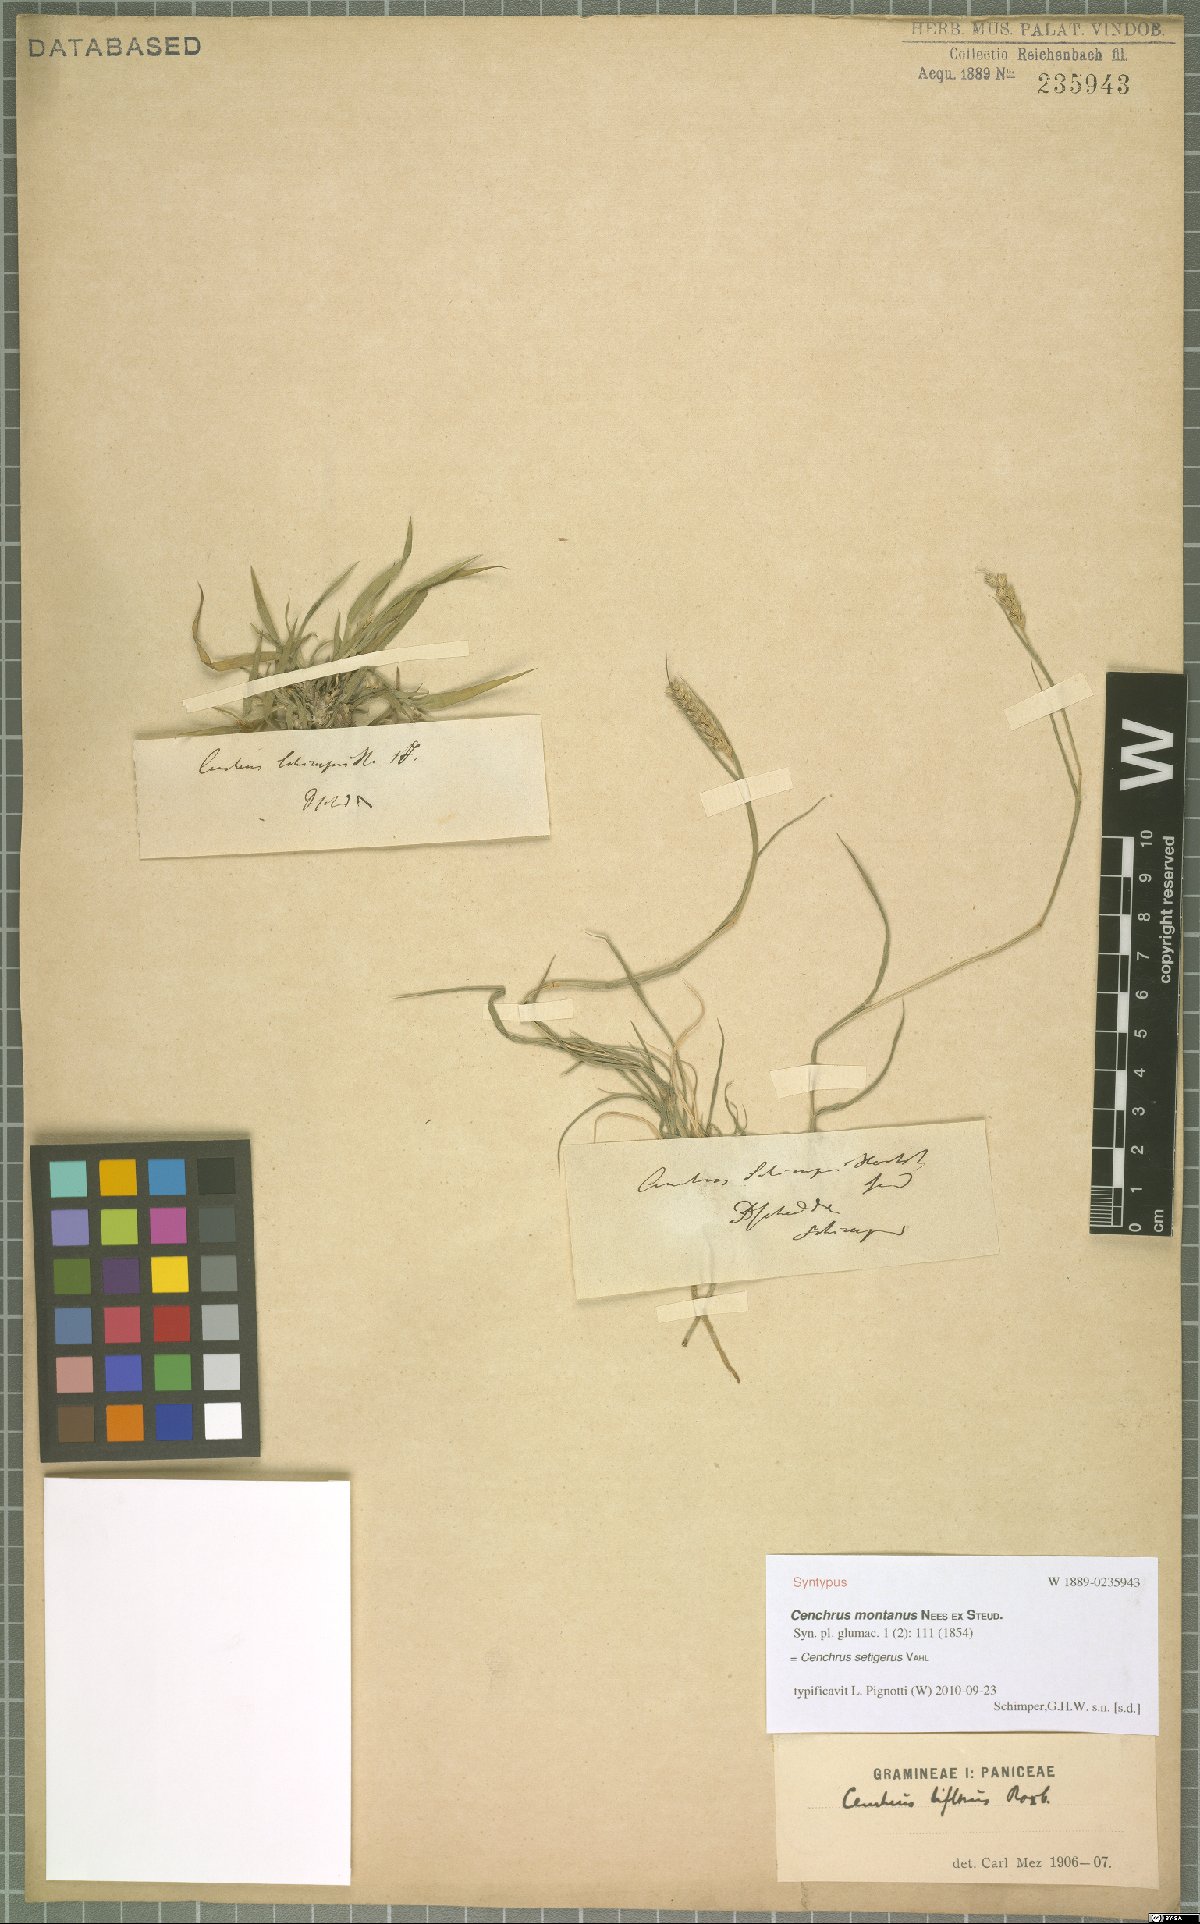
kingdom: Plantae
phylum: Tracheophyta
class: Liliopsida
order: Poales
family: Poaceae
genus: Cenchrus
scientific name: Cenchrus setigerus
